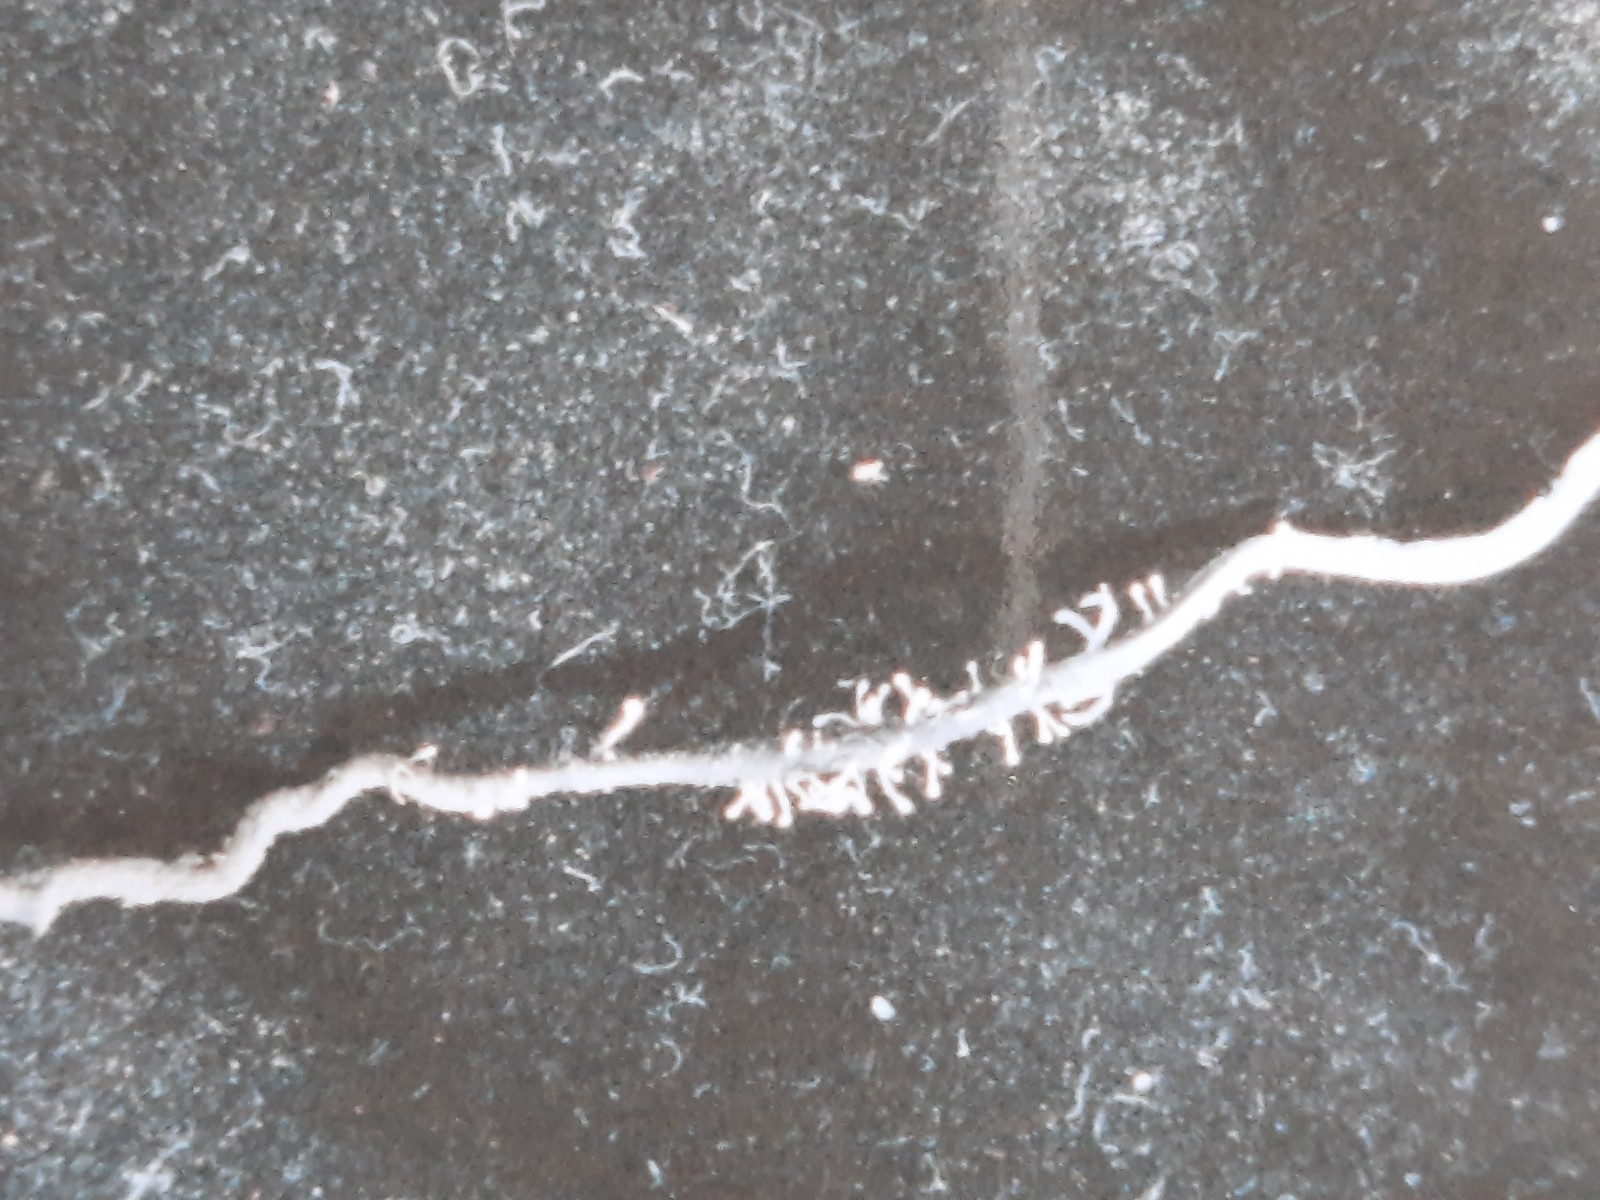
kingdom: Fungi
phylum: Ascomycota
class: Sordariomycetes
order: Hypocreales
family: Ophiocordycipitaceae
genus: Polycephalomyces
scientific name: Polycephalomyces ramosus
